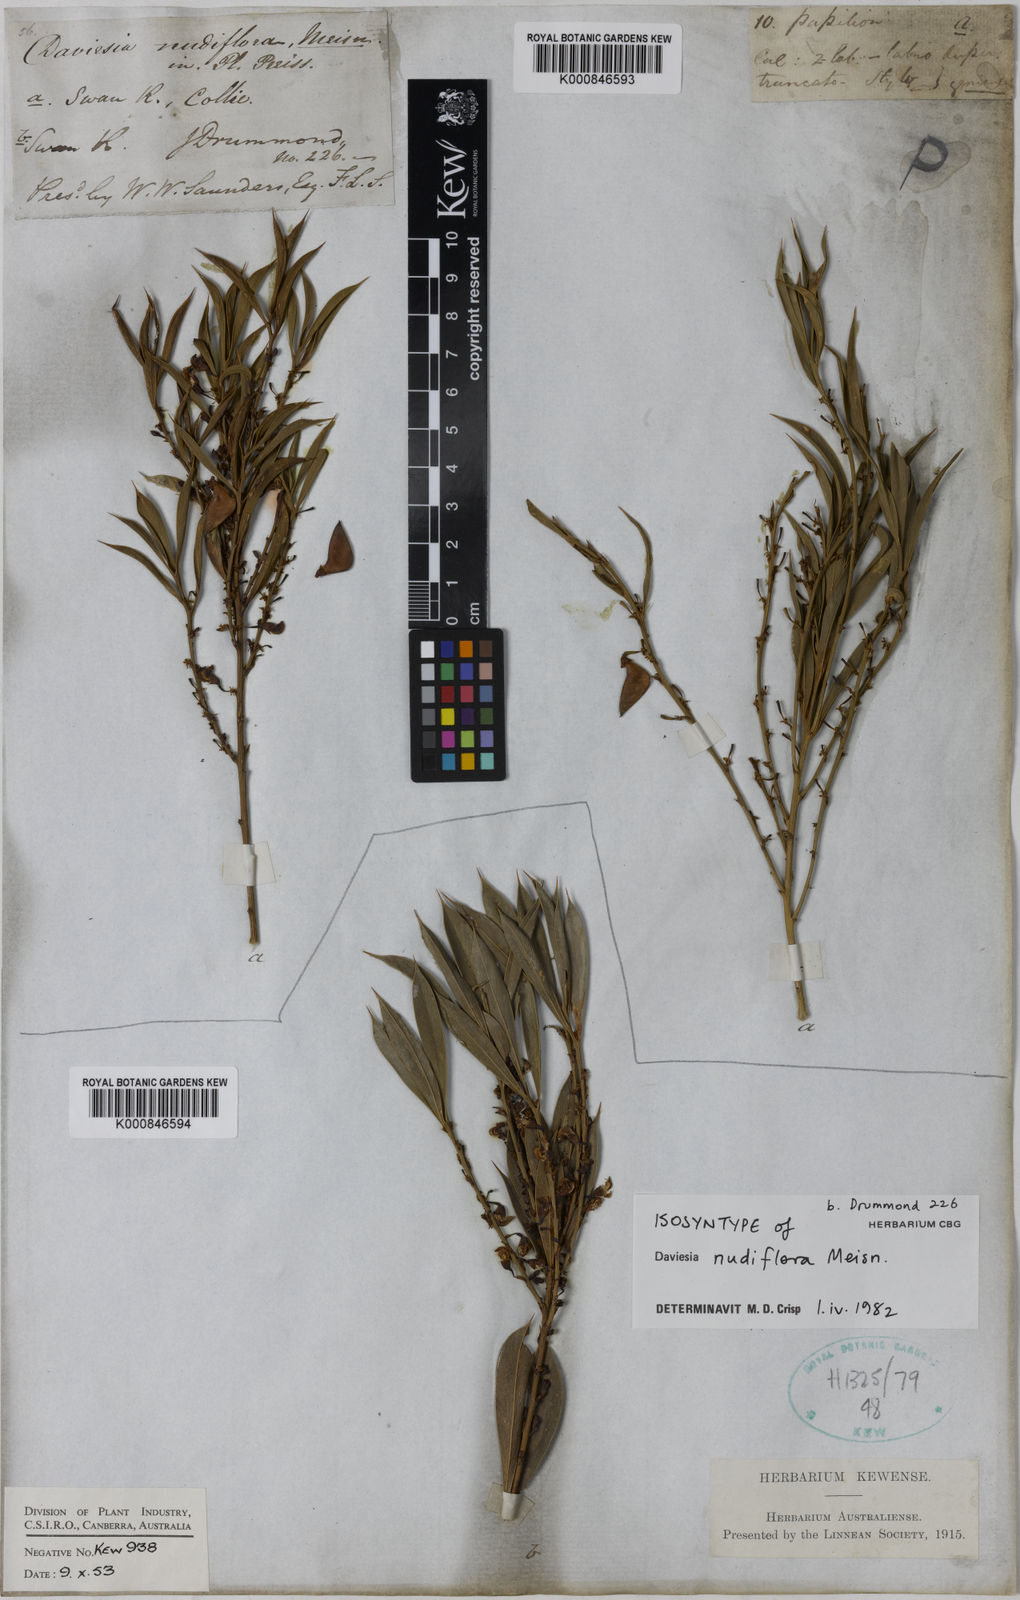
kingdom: Plantae
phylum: Tracheophyta
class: Magnoliopsida
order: Fabales
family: Fabaceae
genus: Daviesia
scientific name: Daviesia nudiflora
